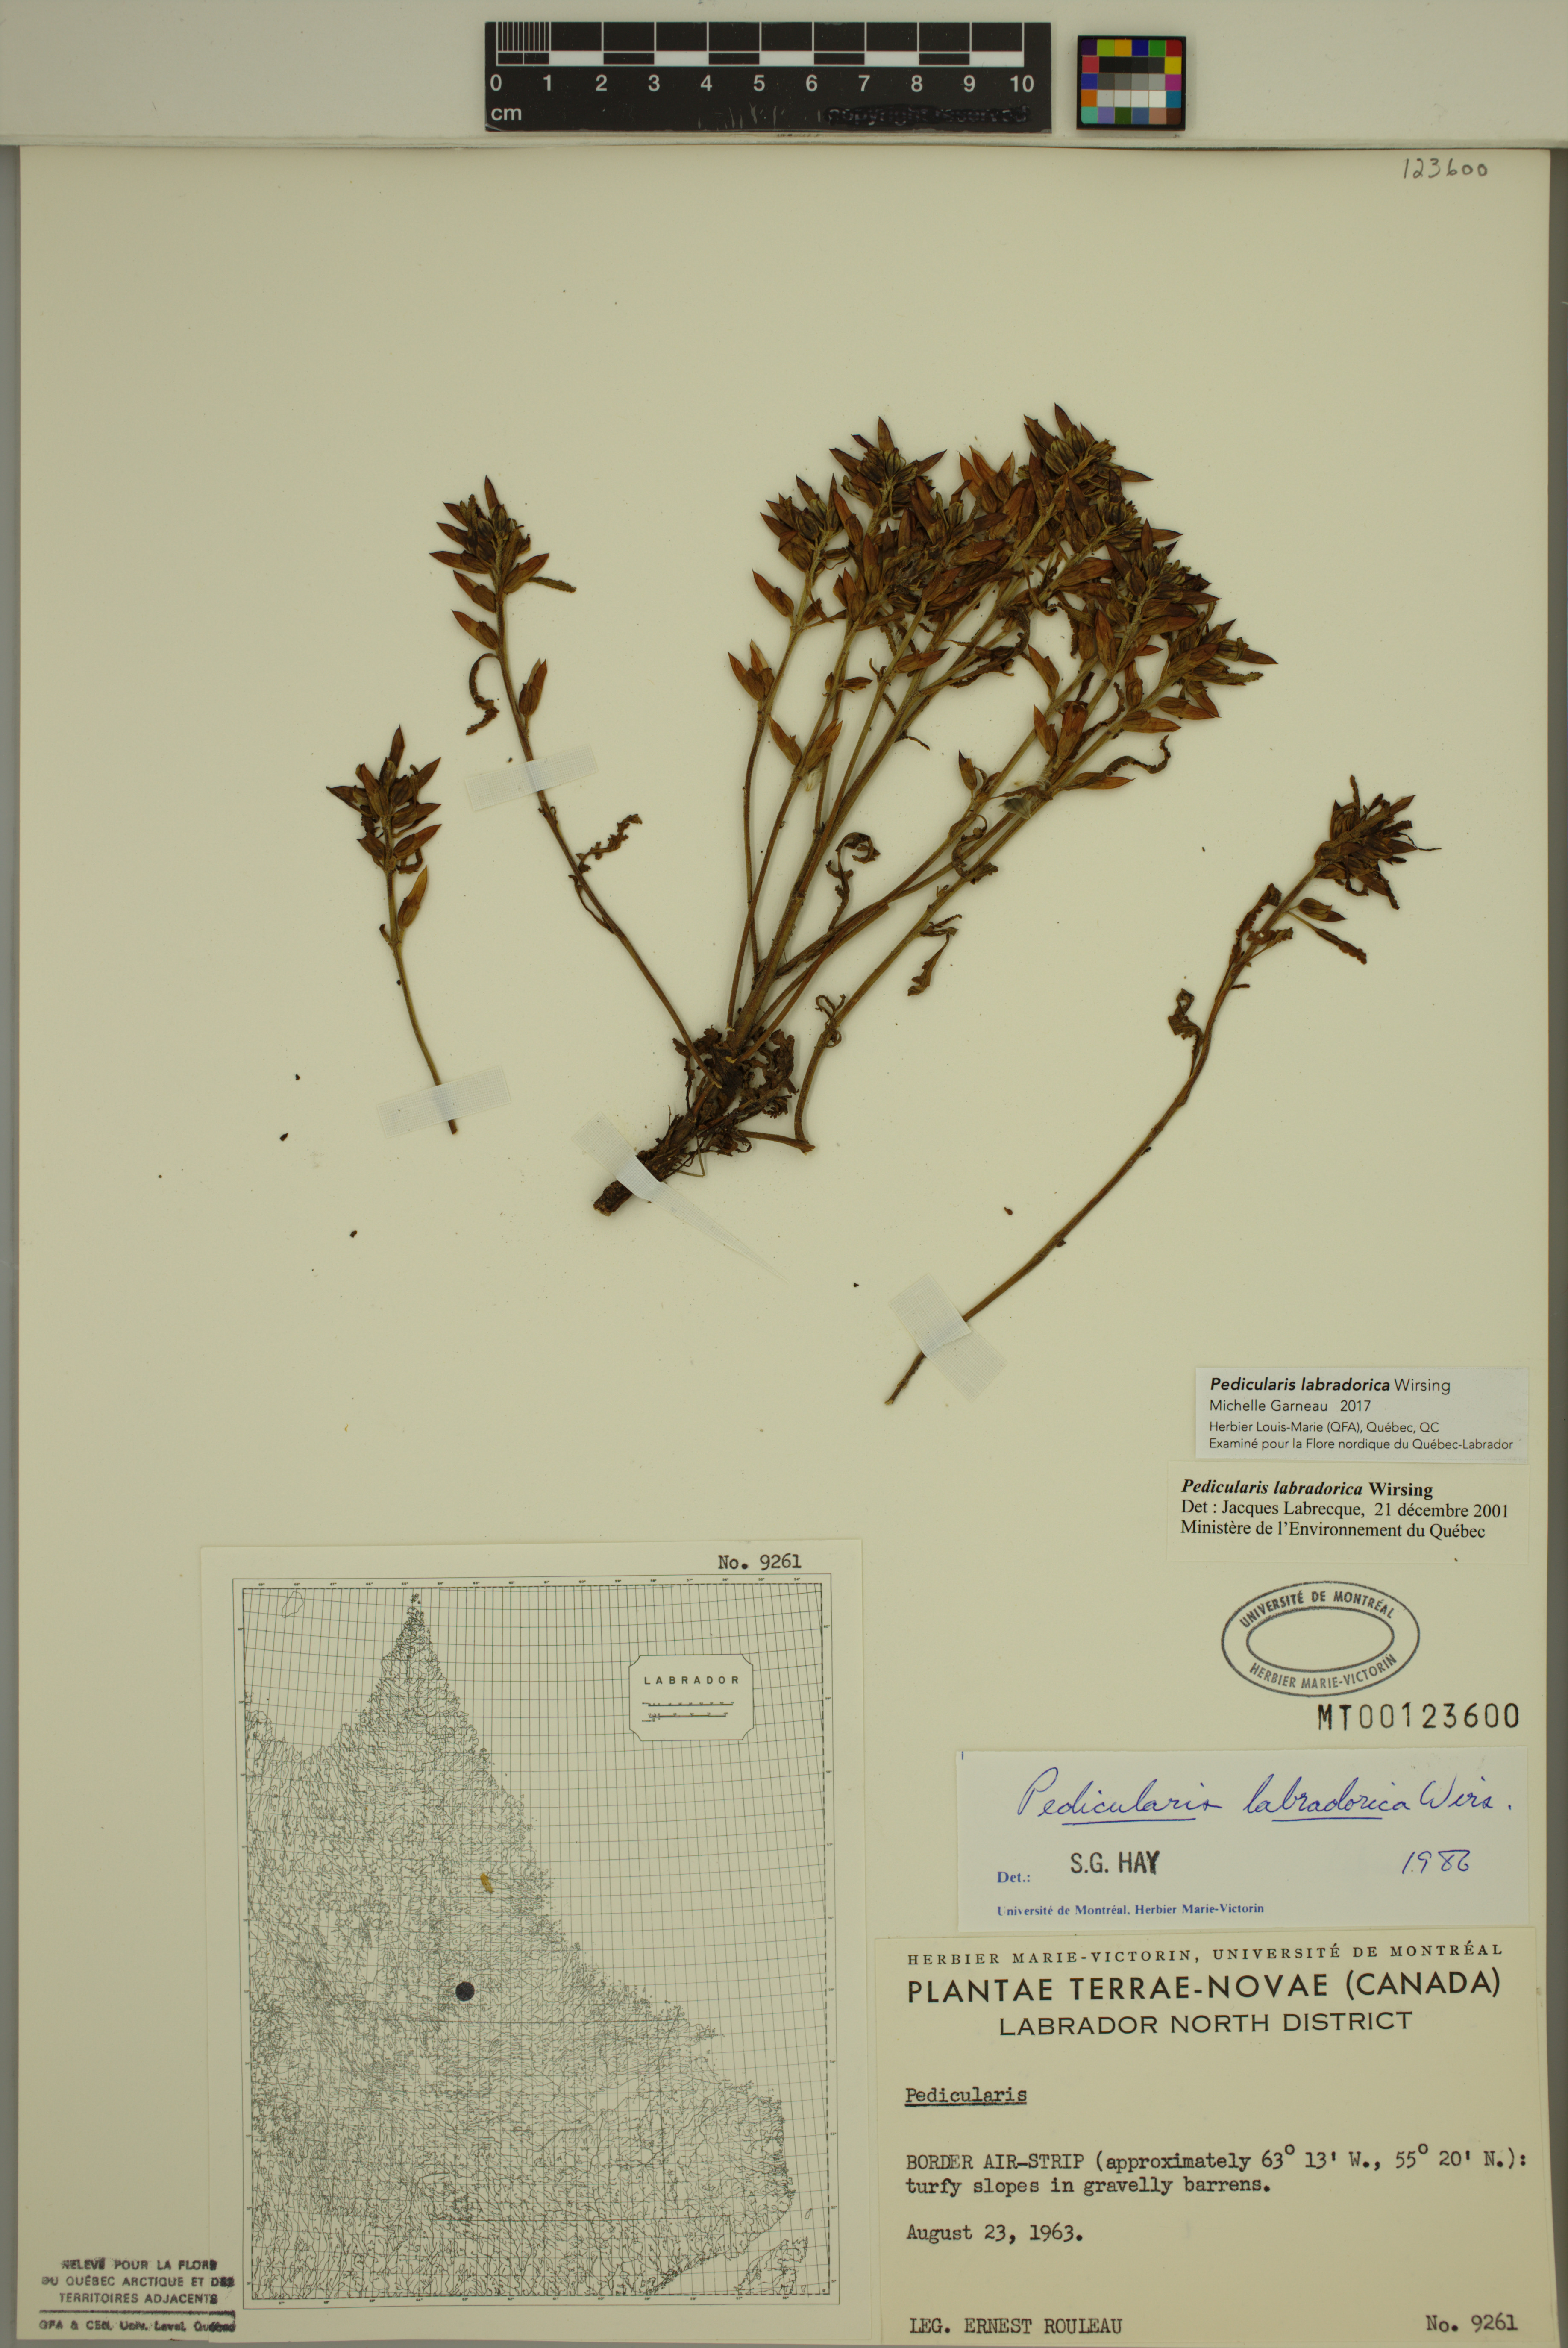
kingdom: Plantae
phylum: Tracheophyta
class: Magnoliopsida
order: Lamiales
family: Orobanchaceae
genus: Pedicularis
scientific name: Pedicularis labradorica
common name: Labrador lousewort
